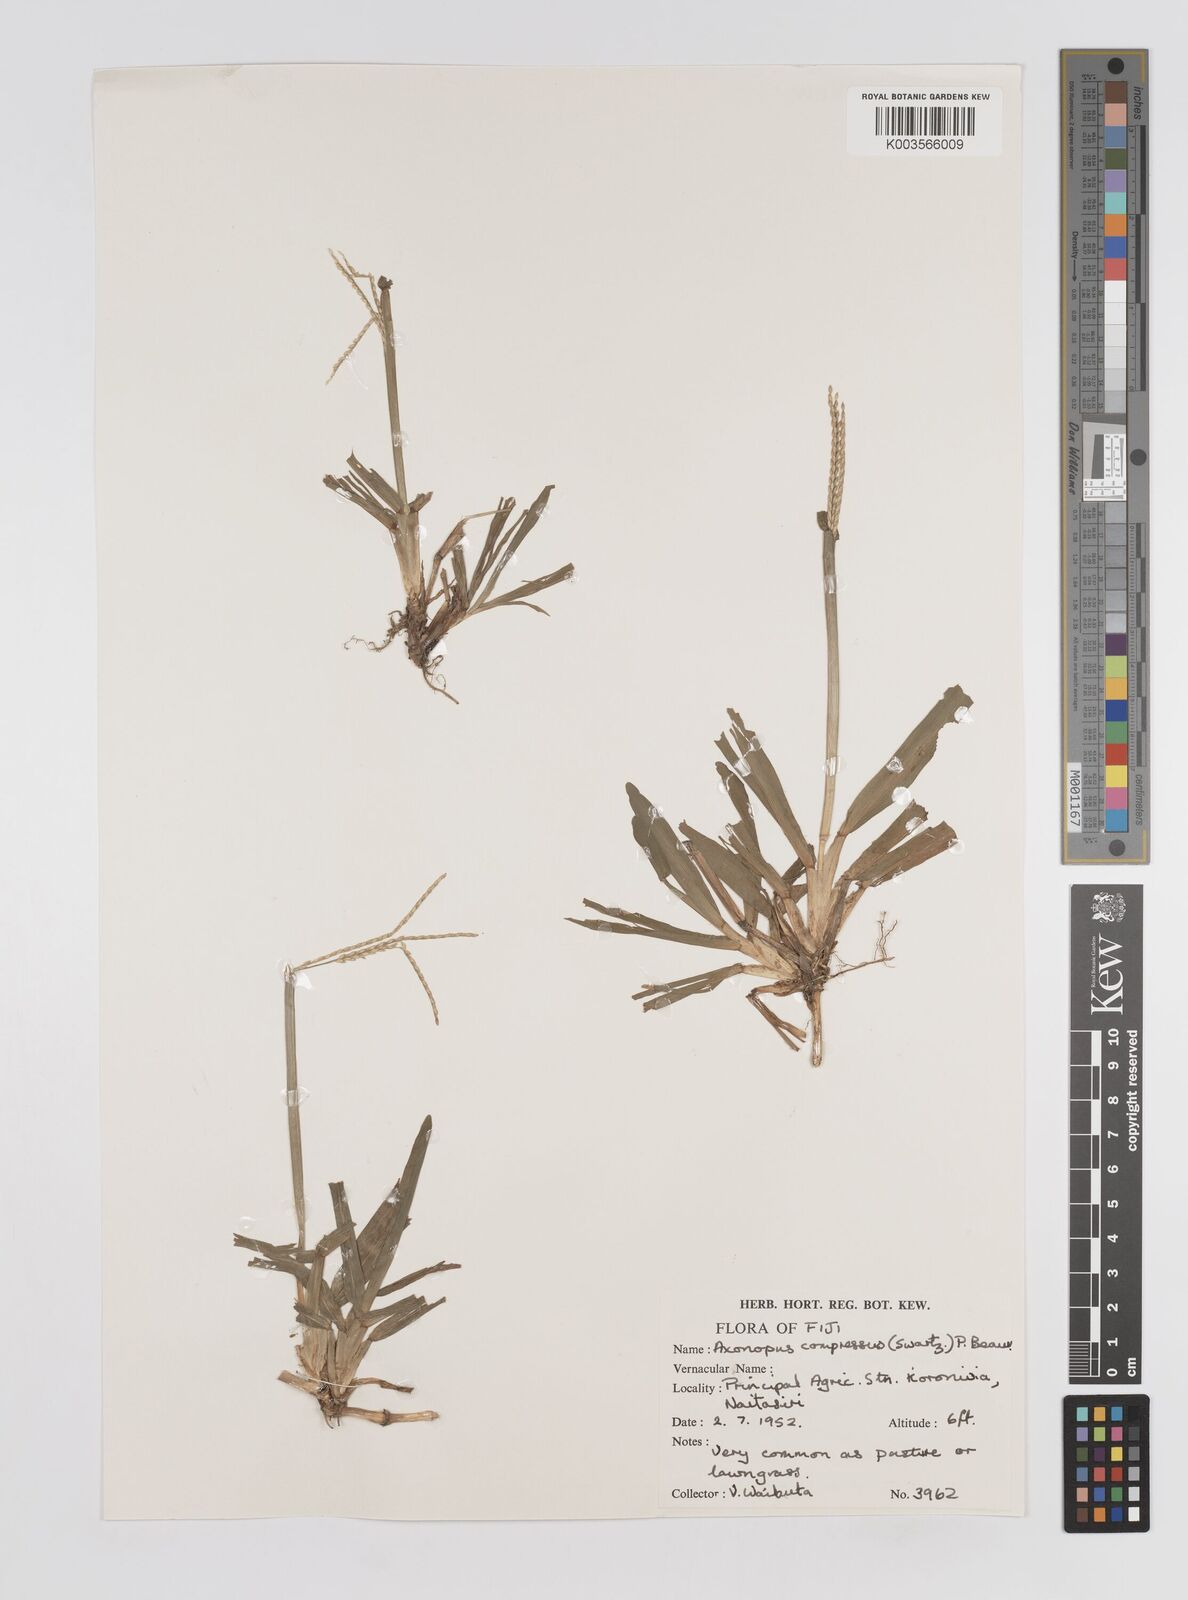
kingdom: Plantae
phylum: Tracheophyta
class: Liliopsida
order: Poales
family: Poaceae
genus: Axonopus
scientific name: Axonopus compressus
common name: American carpet grass
